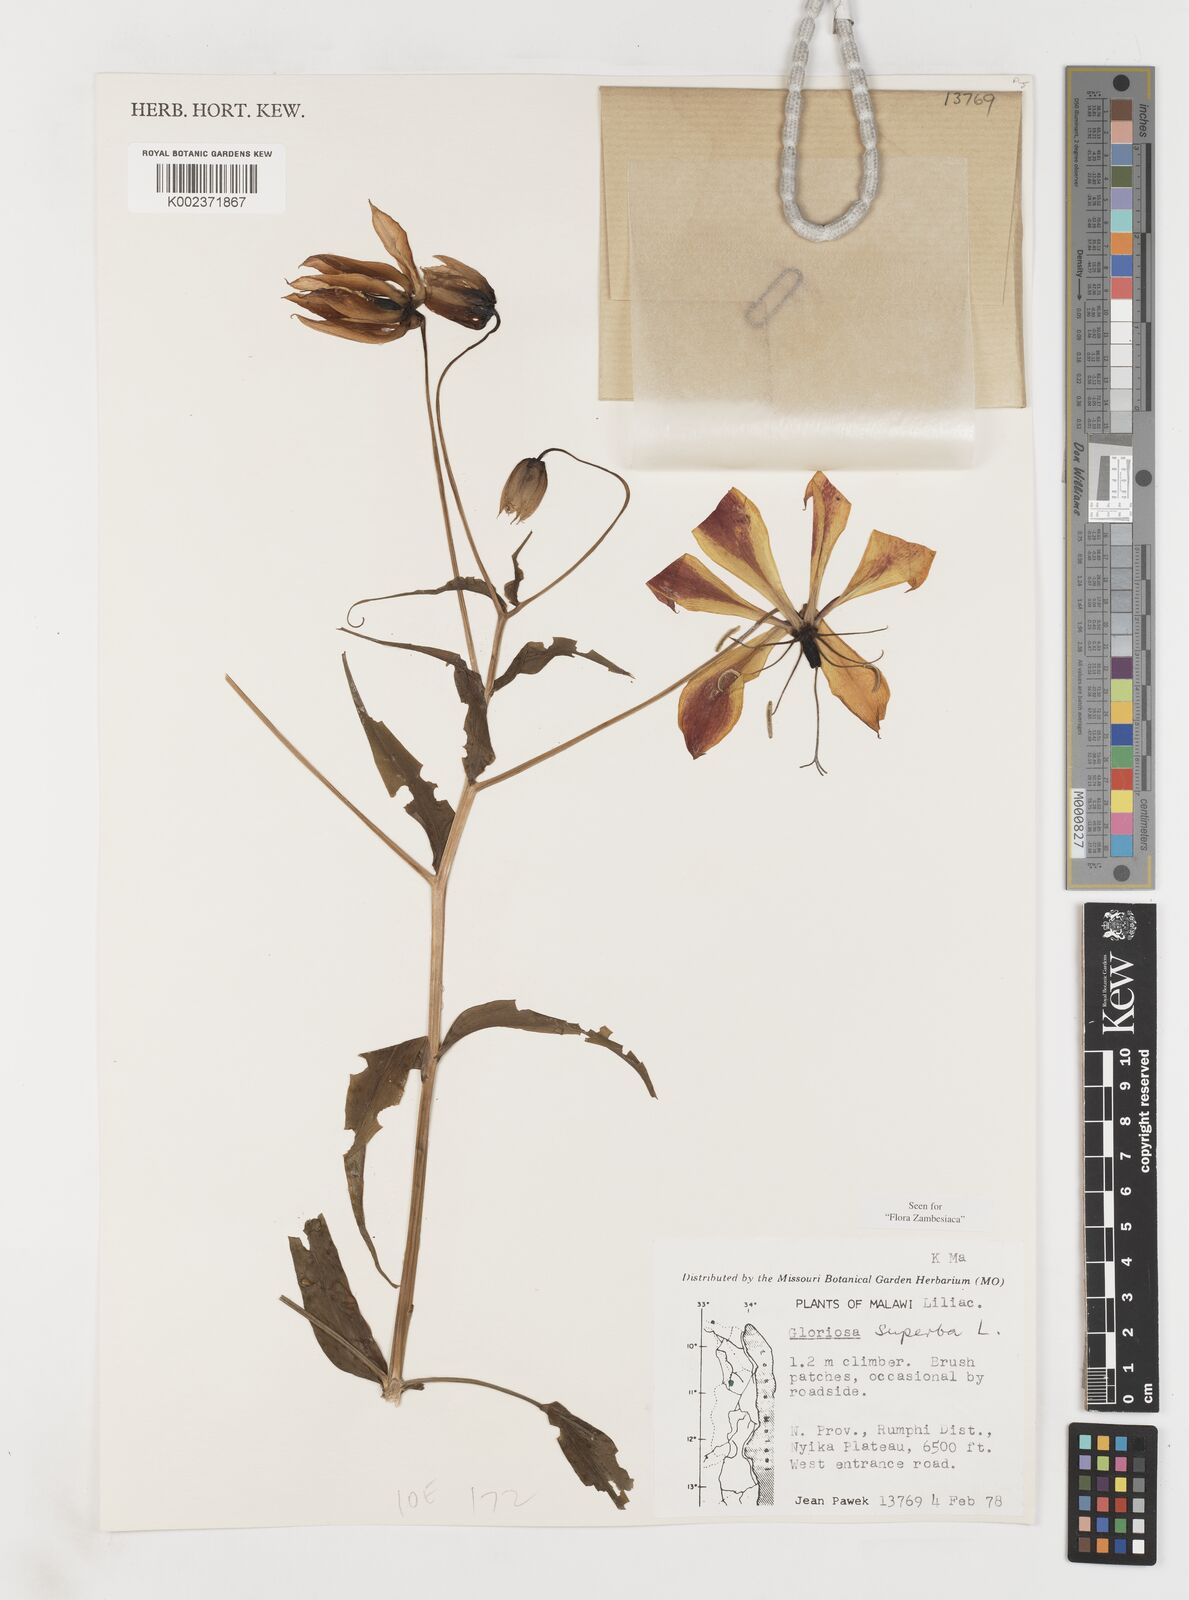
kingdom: Plantae
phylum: Tracheophyta
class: Liliopsida
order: Liliales
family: Colchicaceae
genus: Gloriosa
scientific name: Gloriosa simplex
